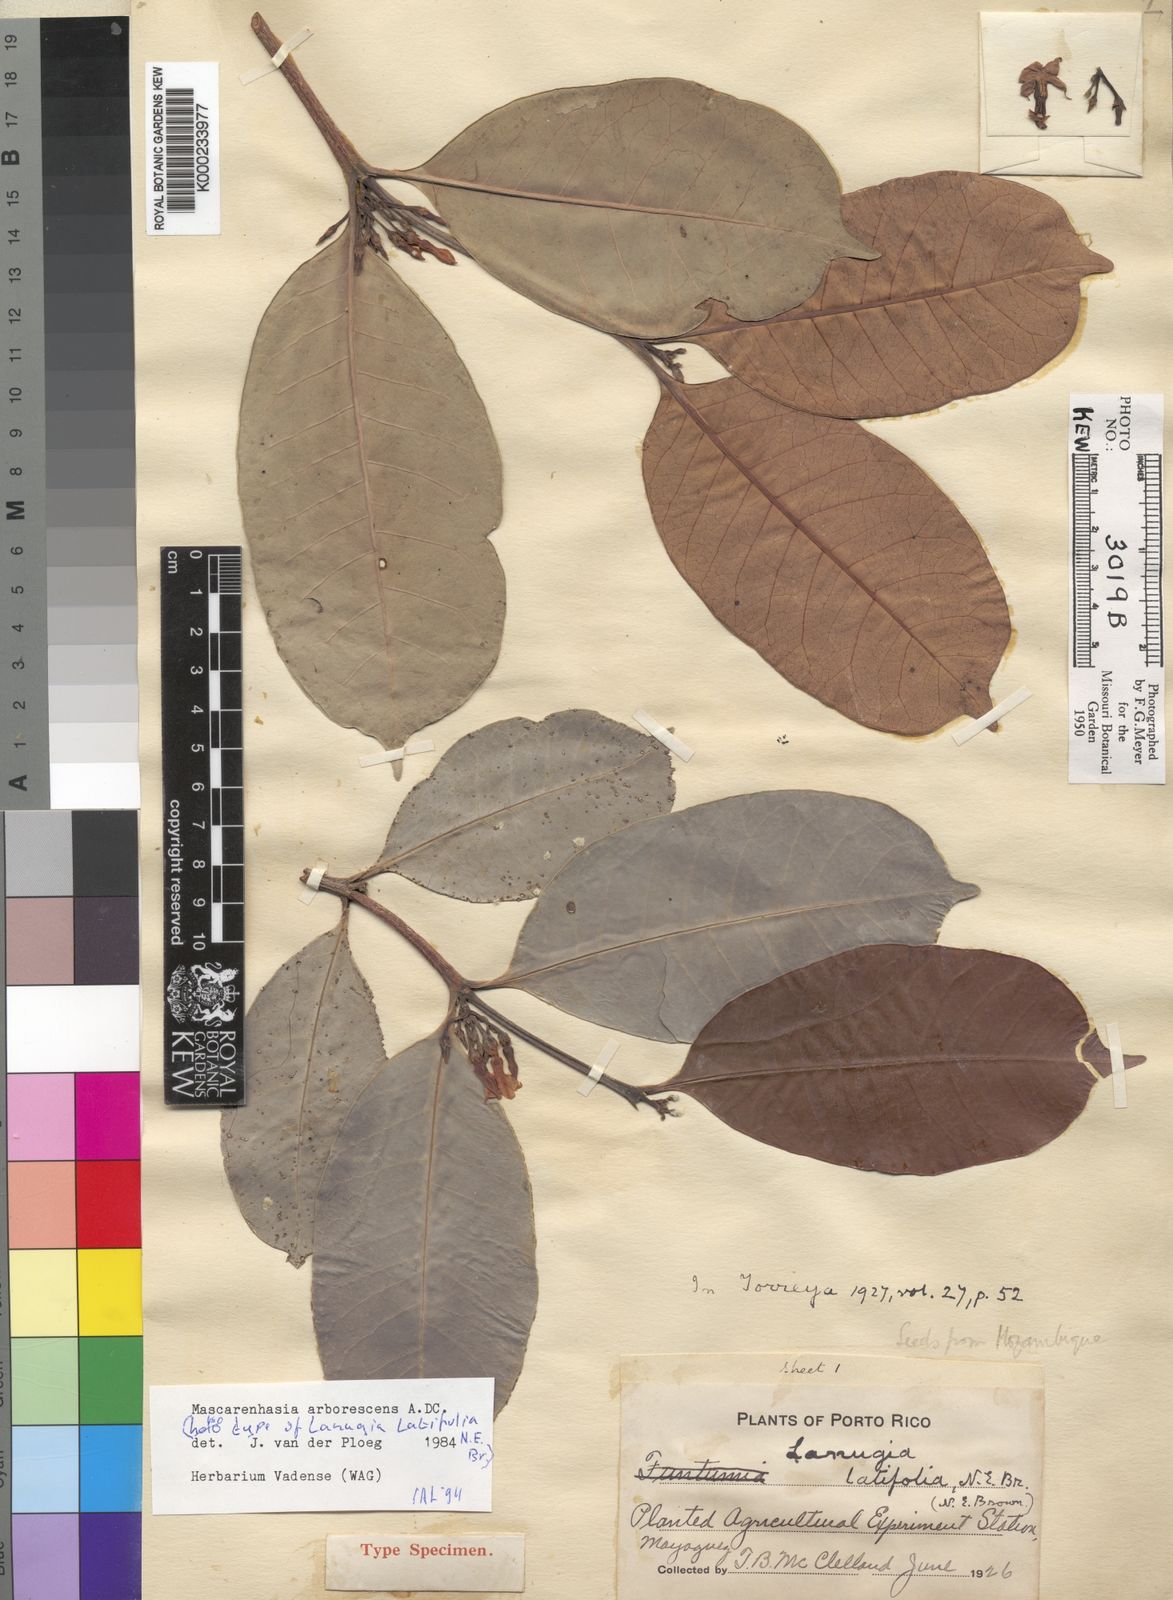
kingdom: Plantae
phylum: Tracheophyta
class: Magnoliopsida
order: Gentianales
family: Apocynaceae
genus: Mascarenhasia
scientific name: Mascarenhasia arborescens
